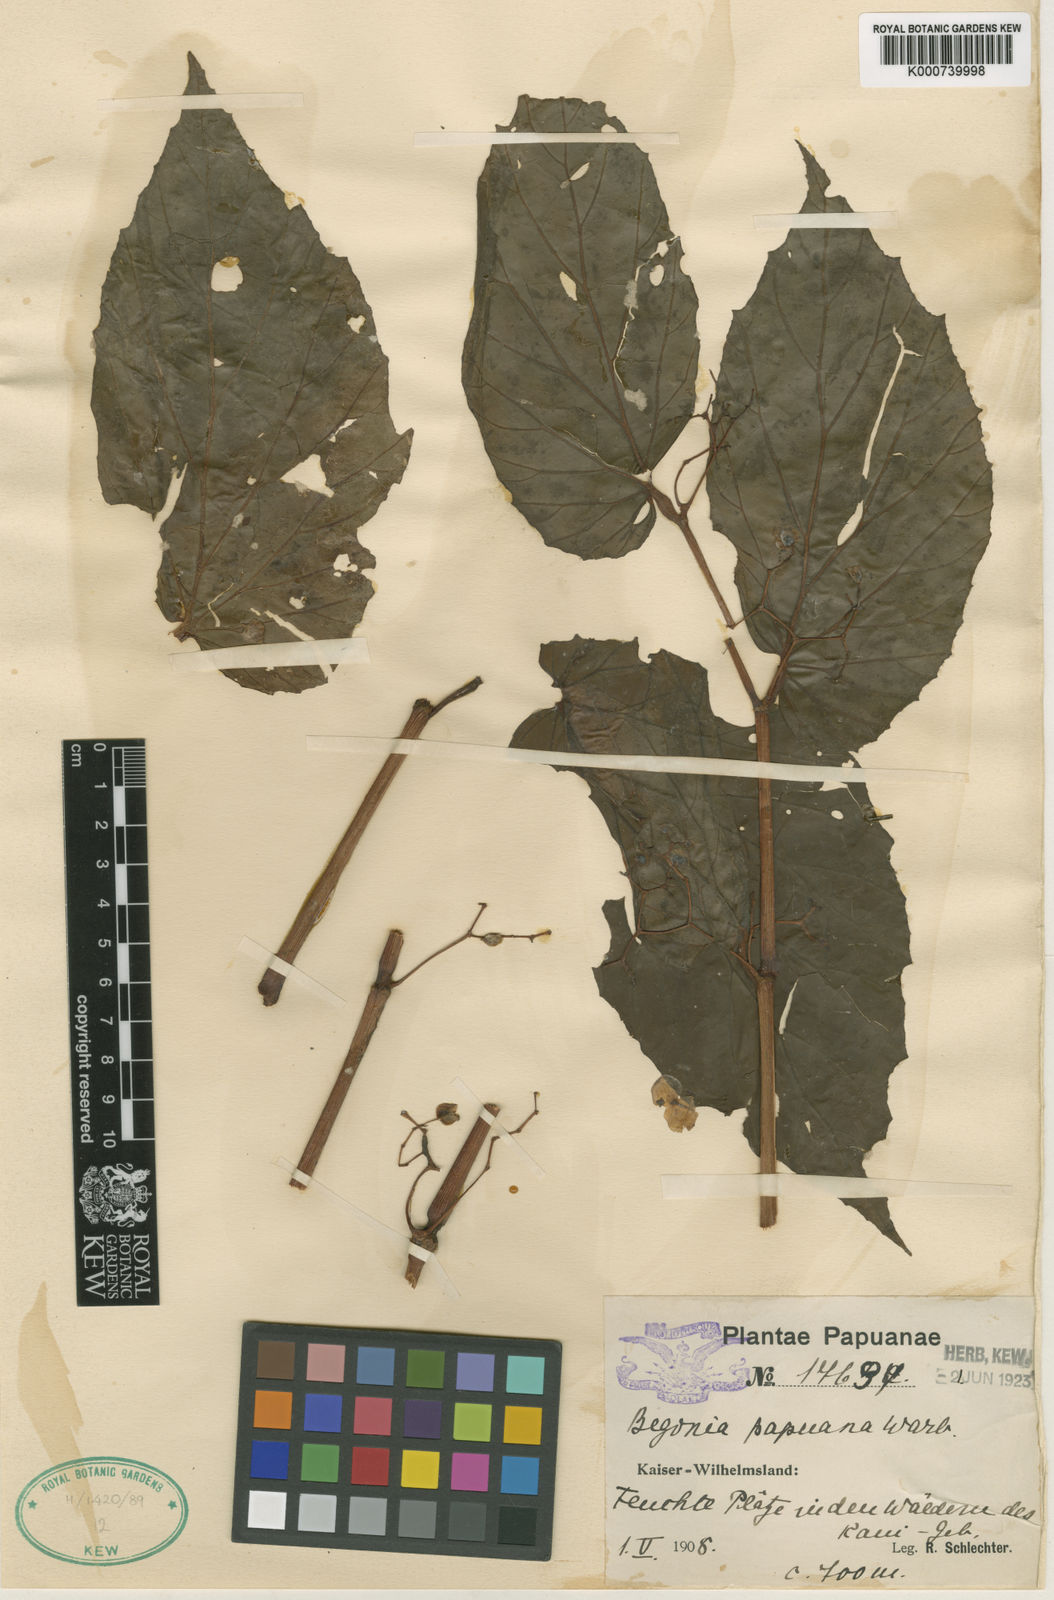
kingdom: Plantae
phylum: Tracheophyta
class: Magnoliopsida
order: Cucurbitales
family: Begoniaceae
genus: Begonia
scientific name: Begonia papuana
